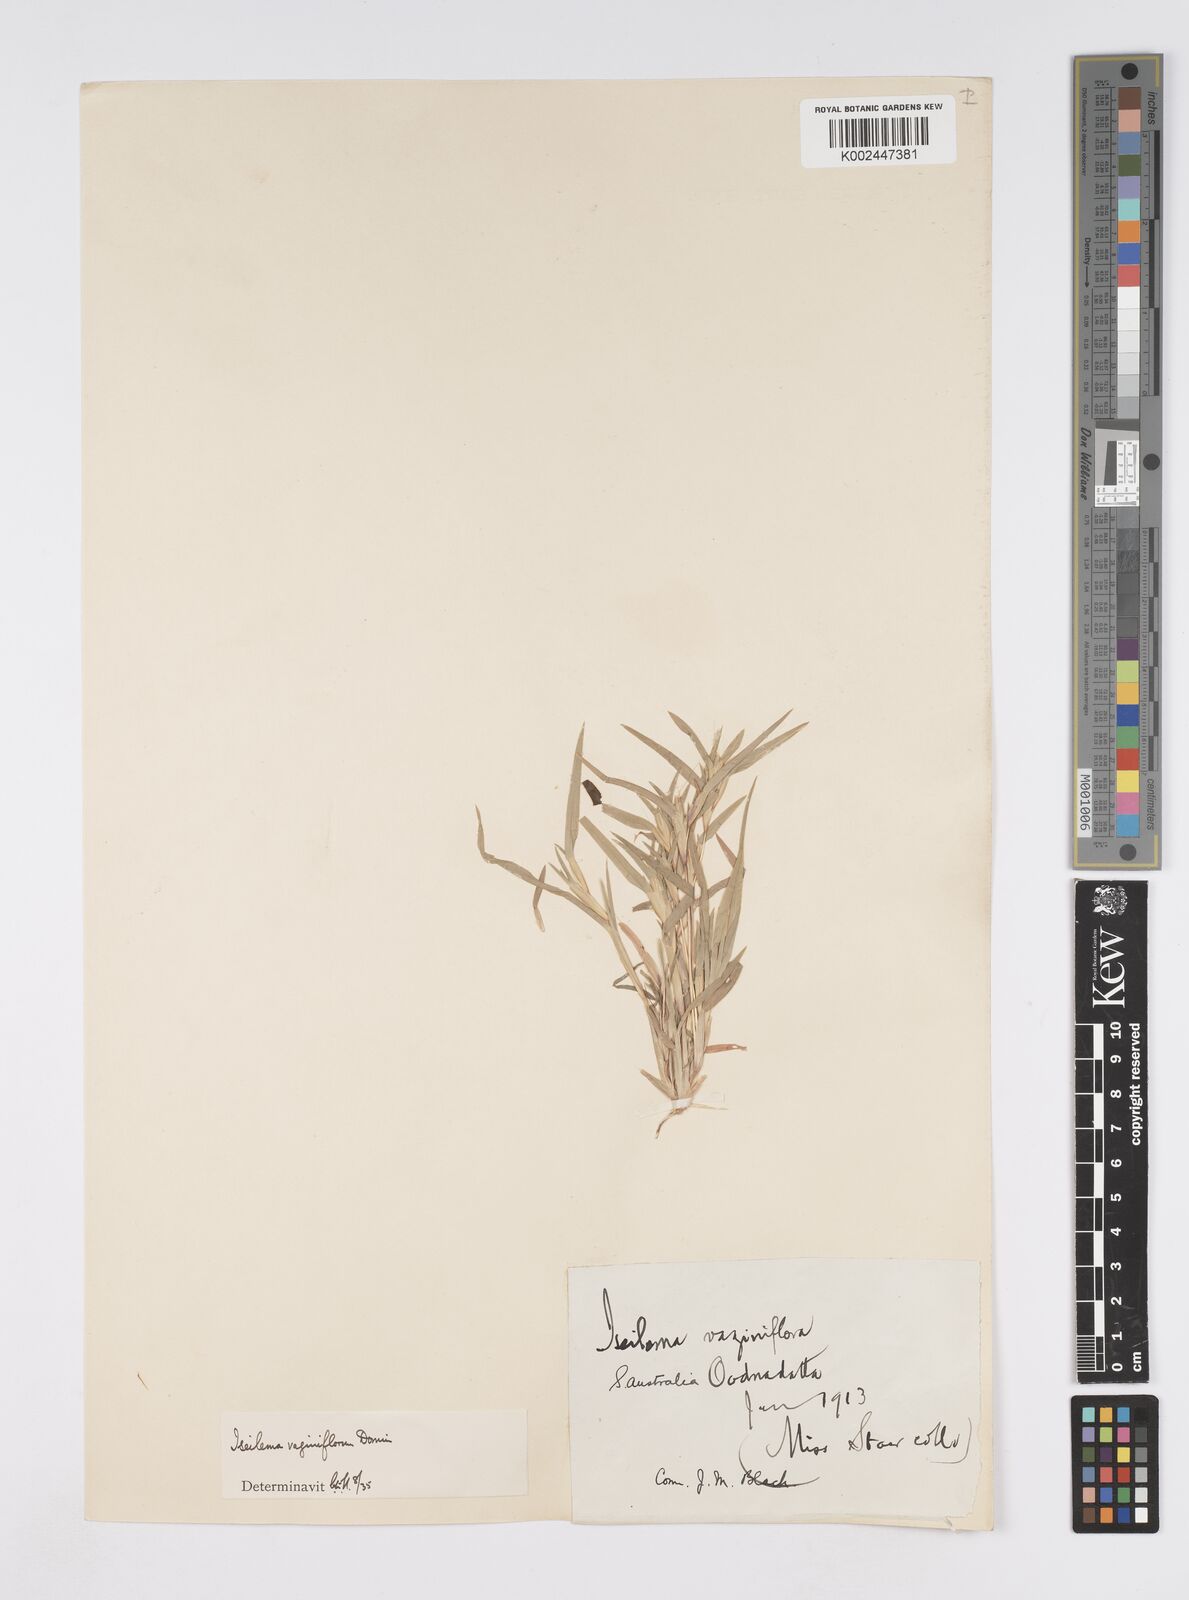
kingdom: Plantae
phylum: Tracheophyta
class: Liliopsida
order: Poales
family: Poaceae
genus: Iseilema
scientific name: Iseilema vaginiflorum
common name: Red flinders grass
